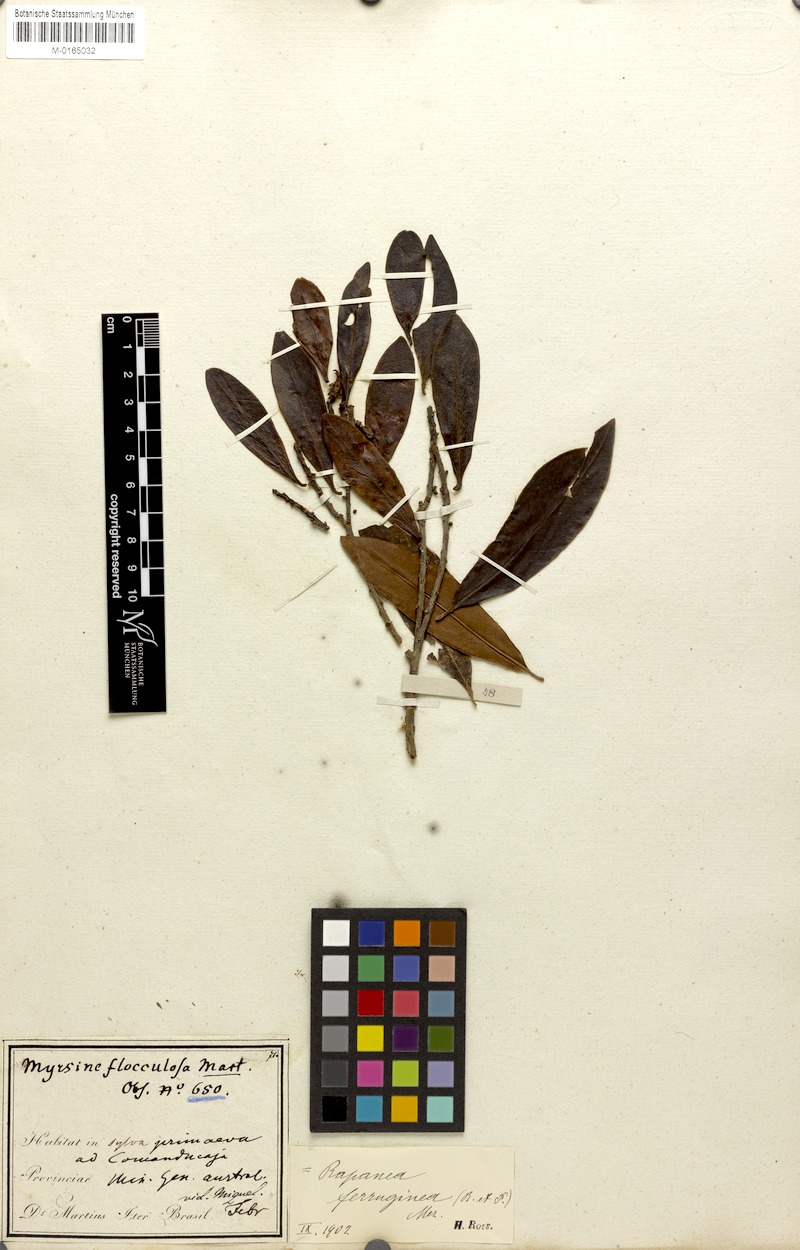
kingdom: Plantae
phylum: Tracheophyta
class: Magnoliopsida
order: Ericales
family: Primulaceae
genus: Myrsine
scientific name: Myrsine coriacea
